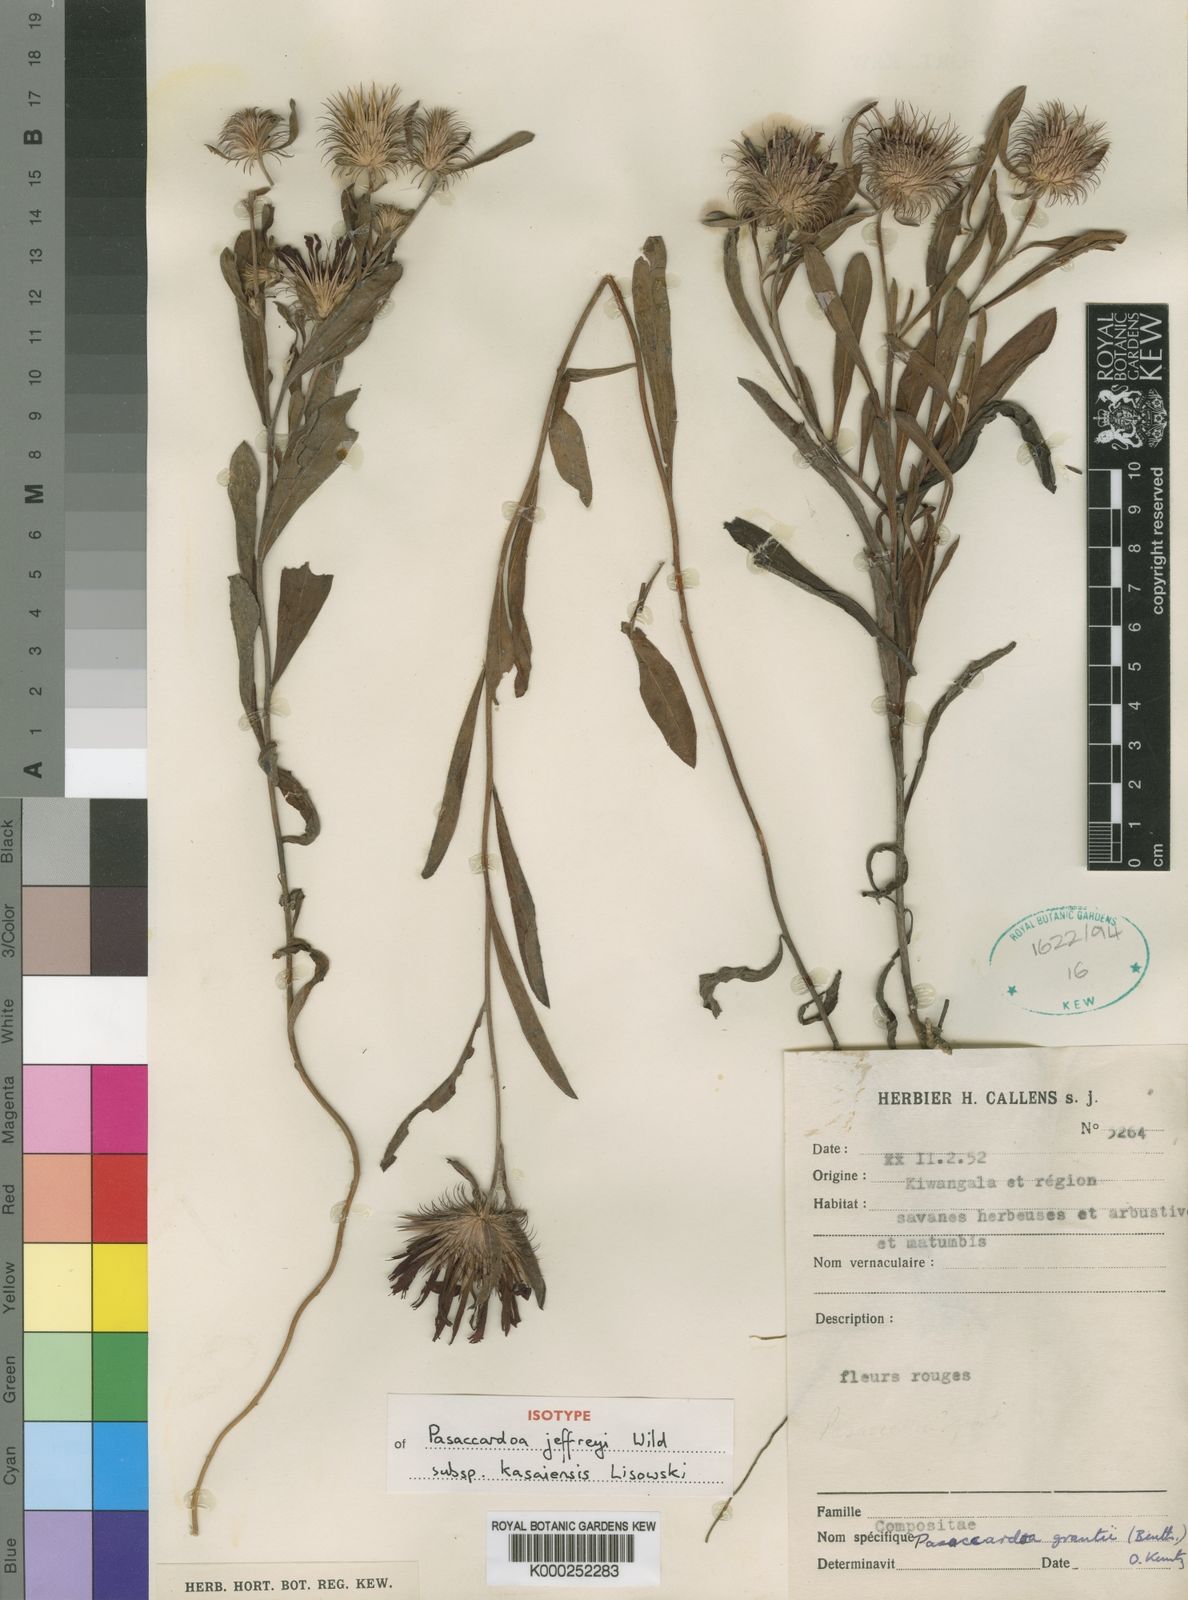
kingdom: Plantae
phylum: Tracheophyta
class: Magnoliopsida
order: Asterales
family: Asteraceae
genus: Pasaccardoa
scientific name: Pasaccardoa jeffreyi
